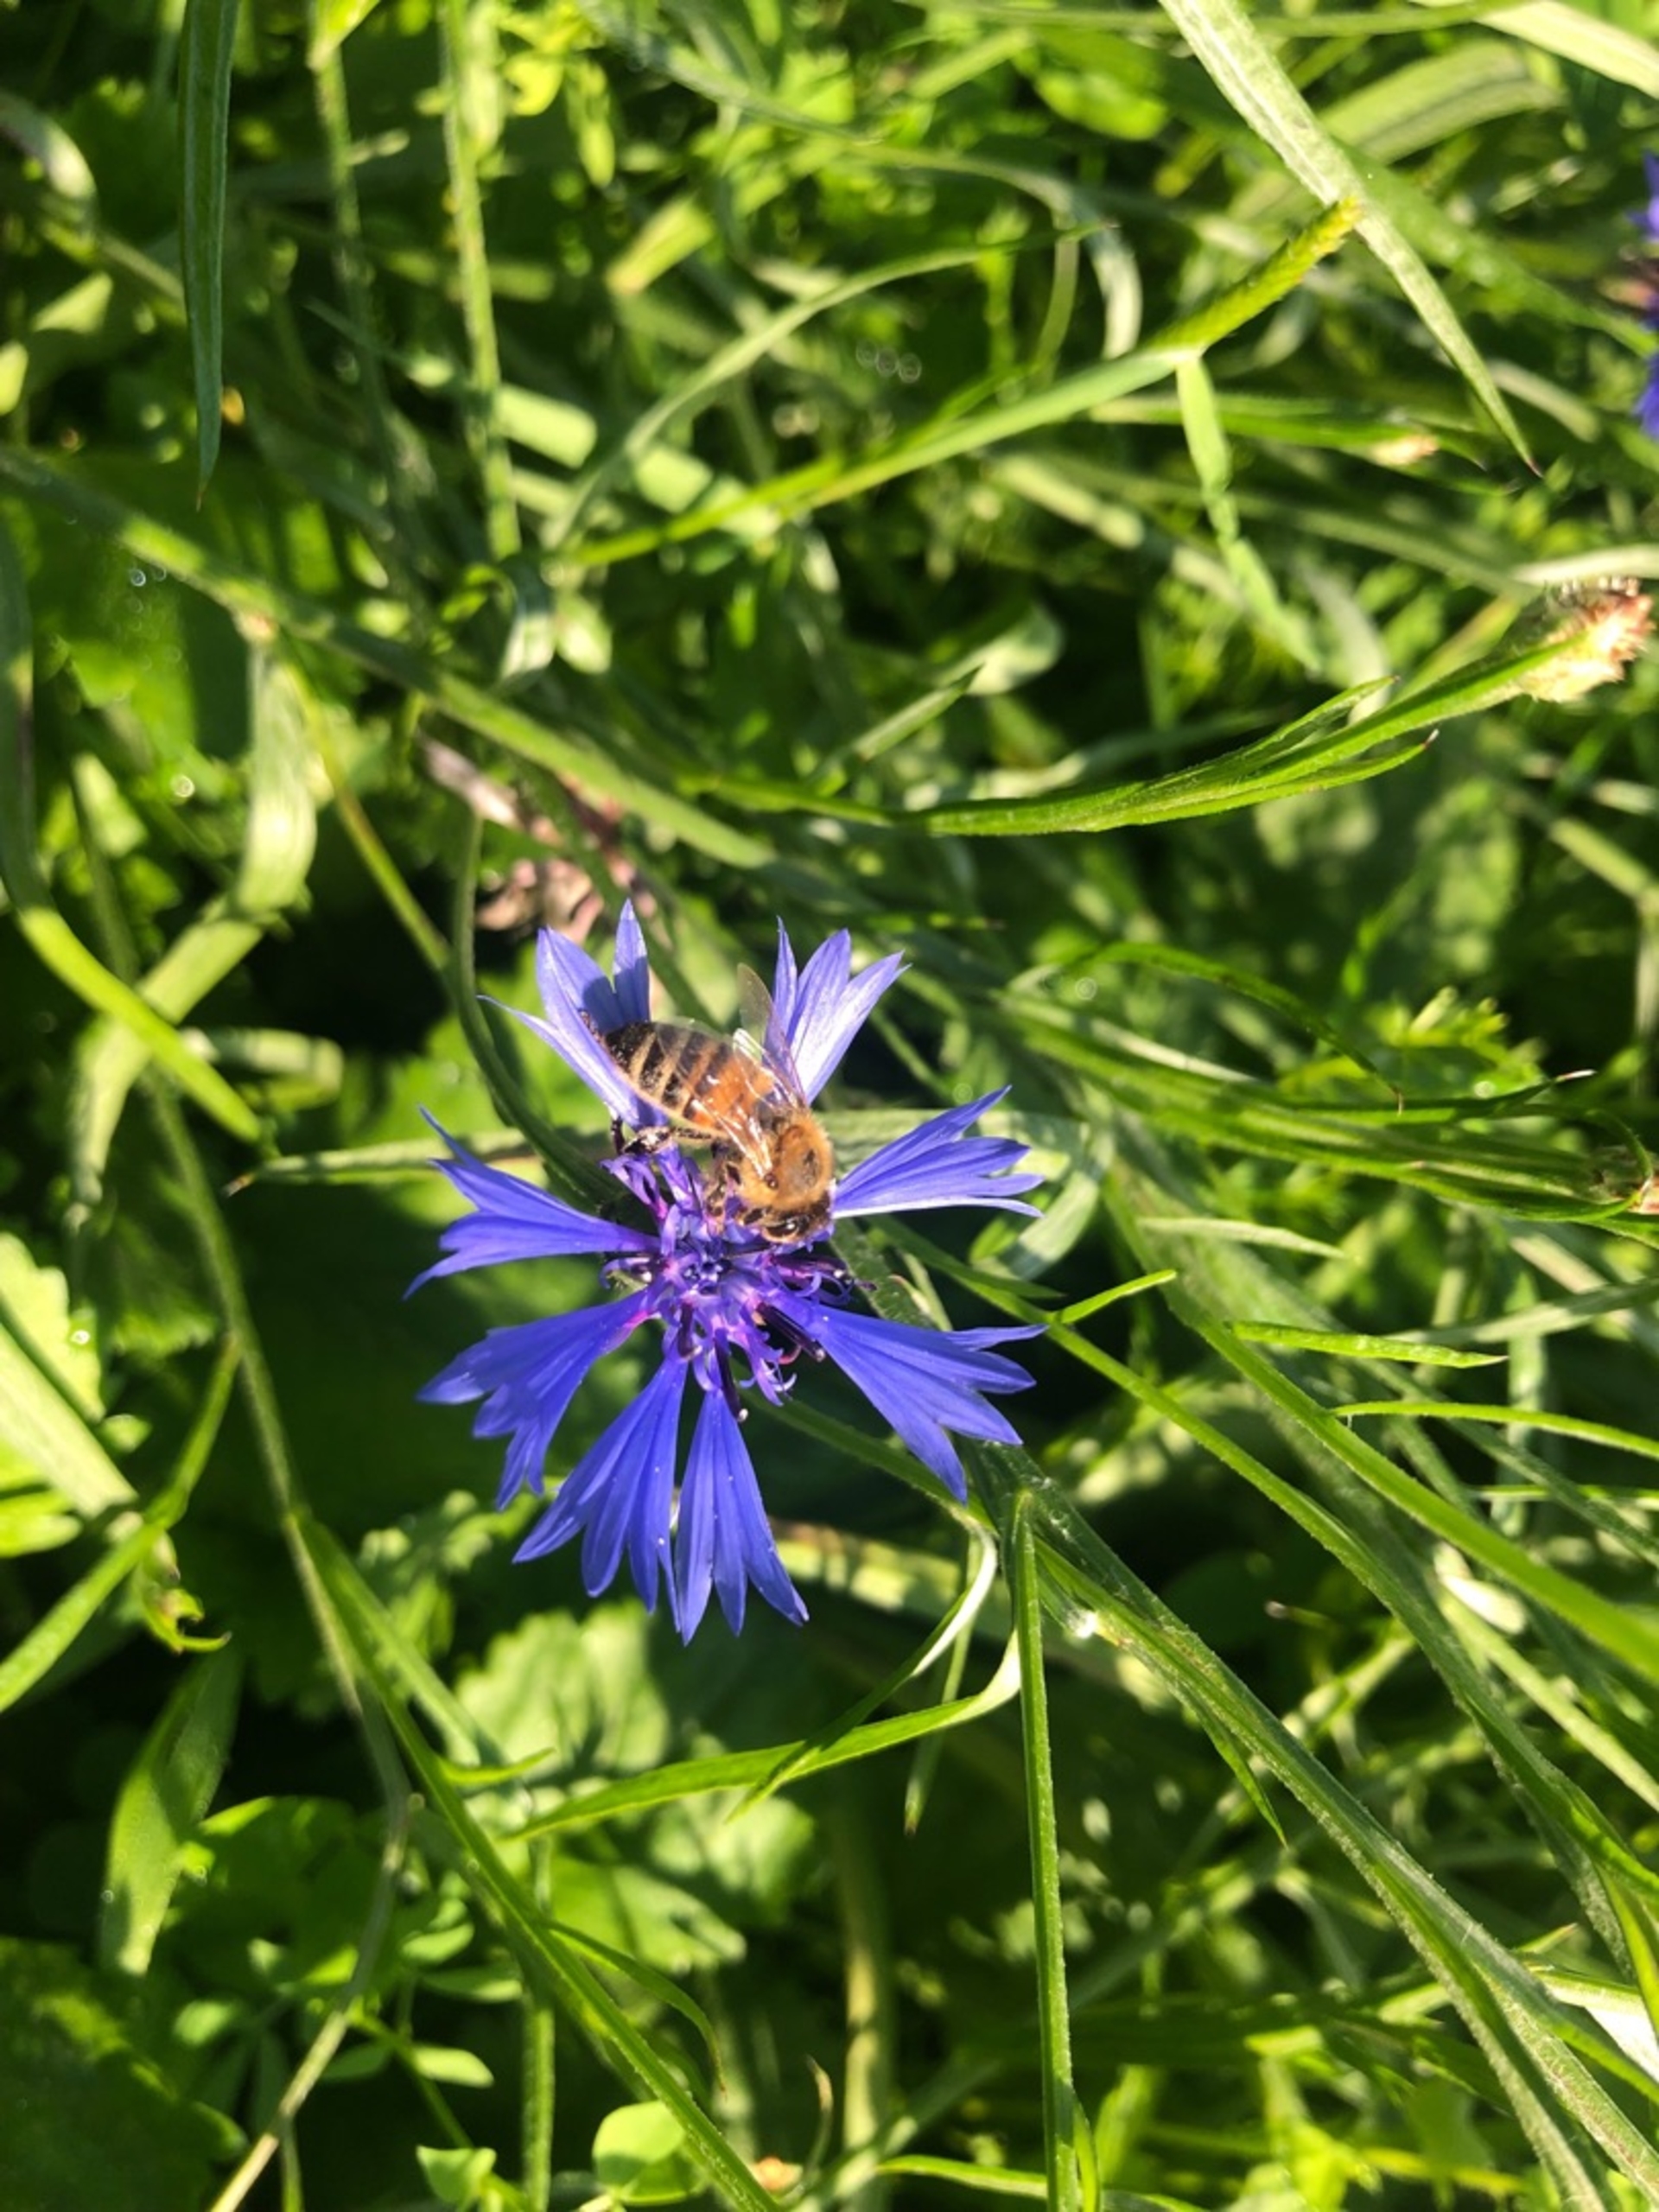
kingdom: Animalia
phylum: Arthropoda
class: Insecta
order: Hymenoptera
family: Apidae
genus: Apis
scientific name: Apis mellifera
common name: Honningbi
